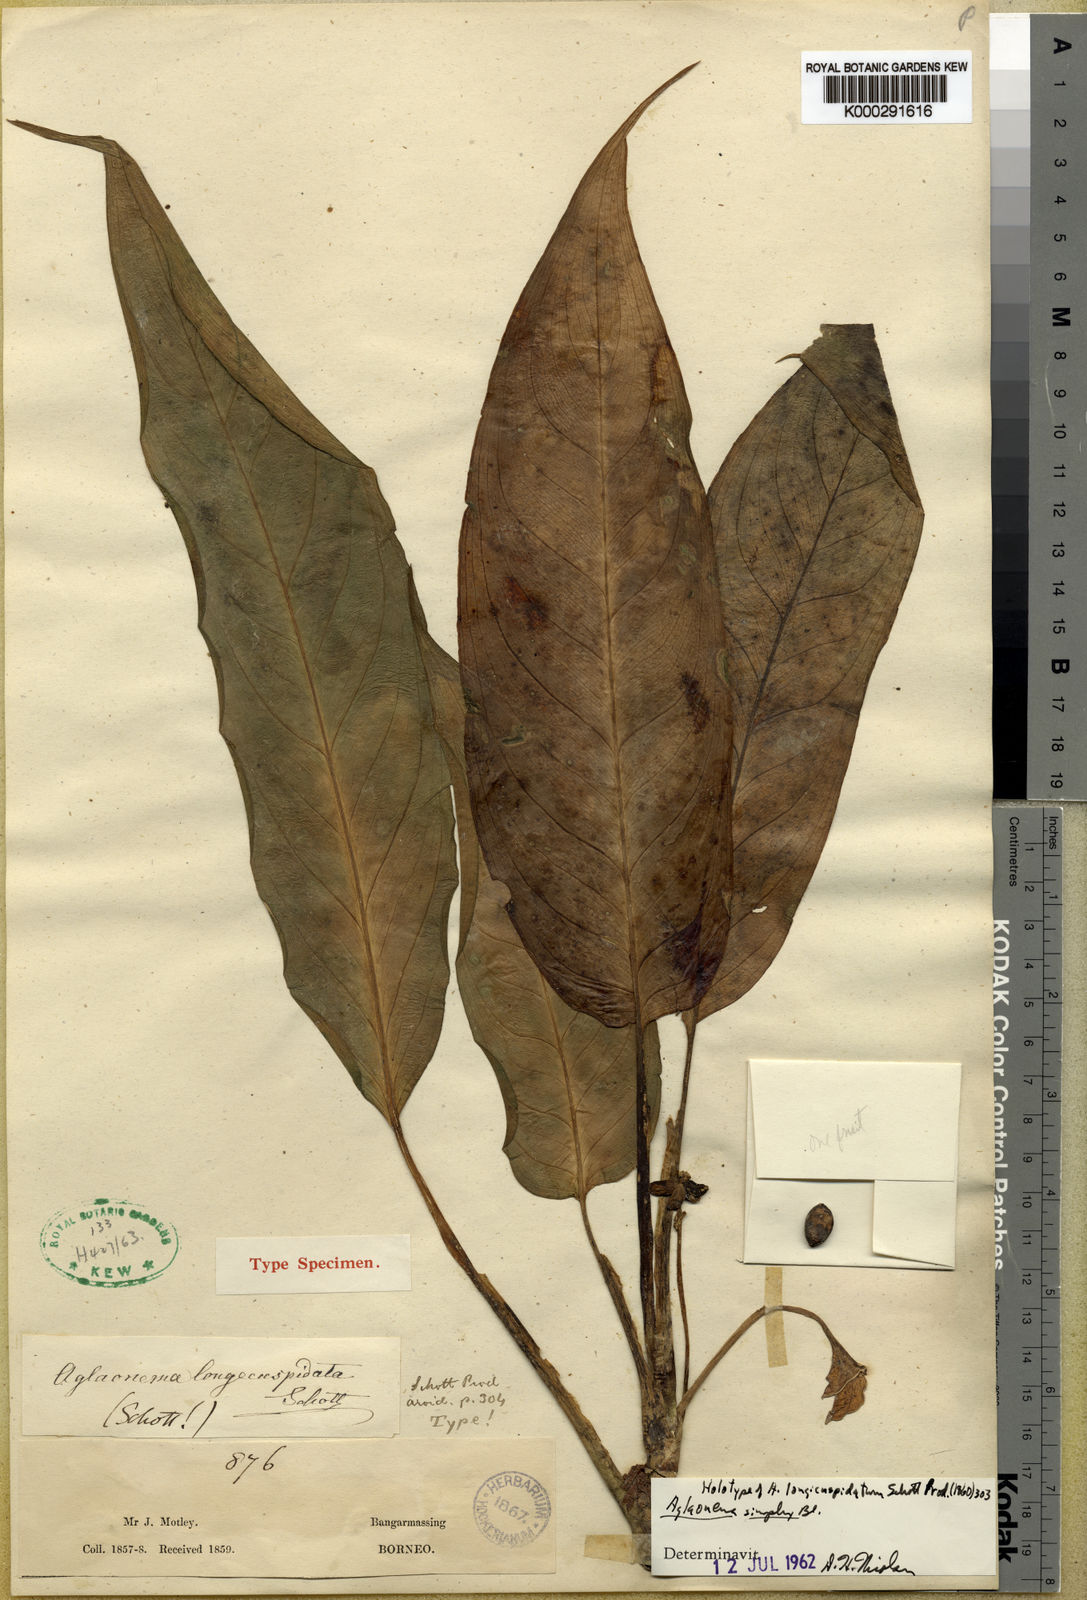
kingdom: Plantae
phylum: Tracheophyta
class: Liliopsida
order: Alismatales
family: Araceae
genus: Aglaonema
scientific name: Aglaonema simplex
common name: Malayan-sword
